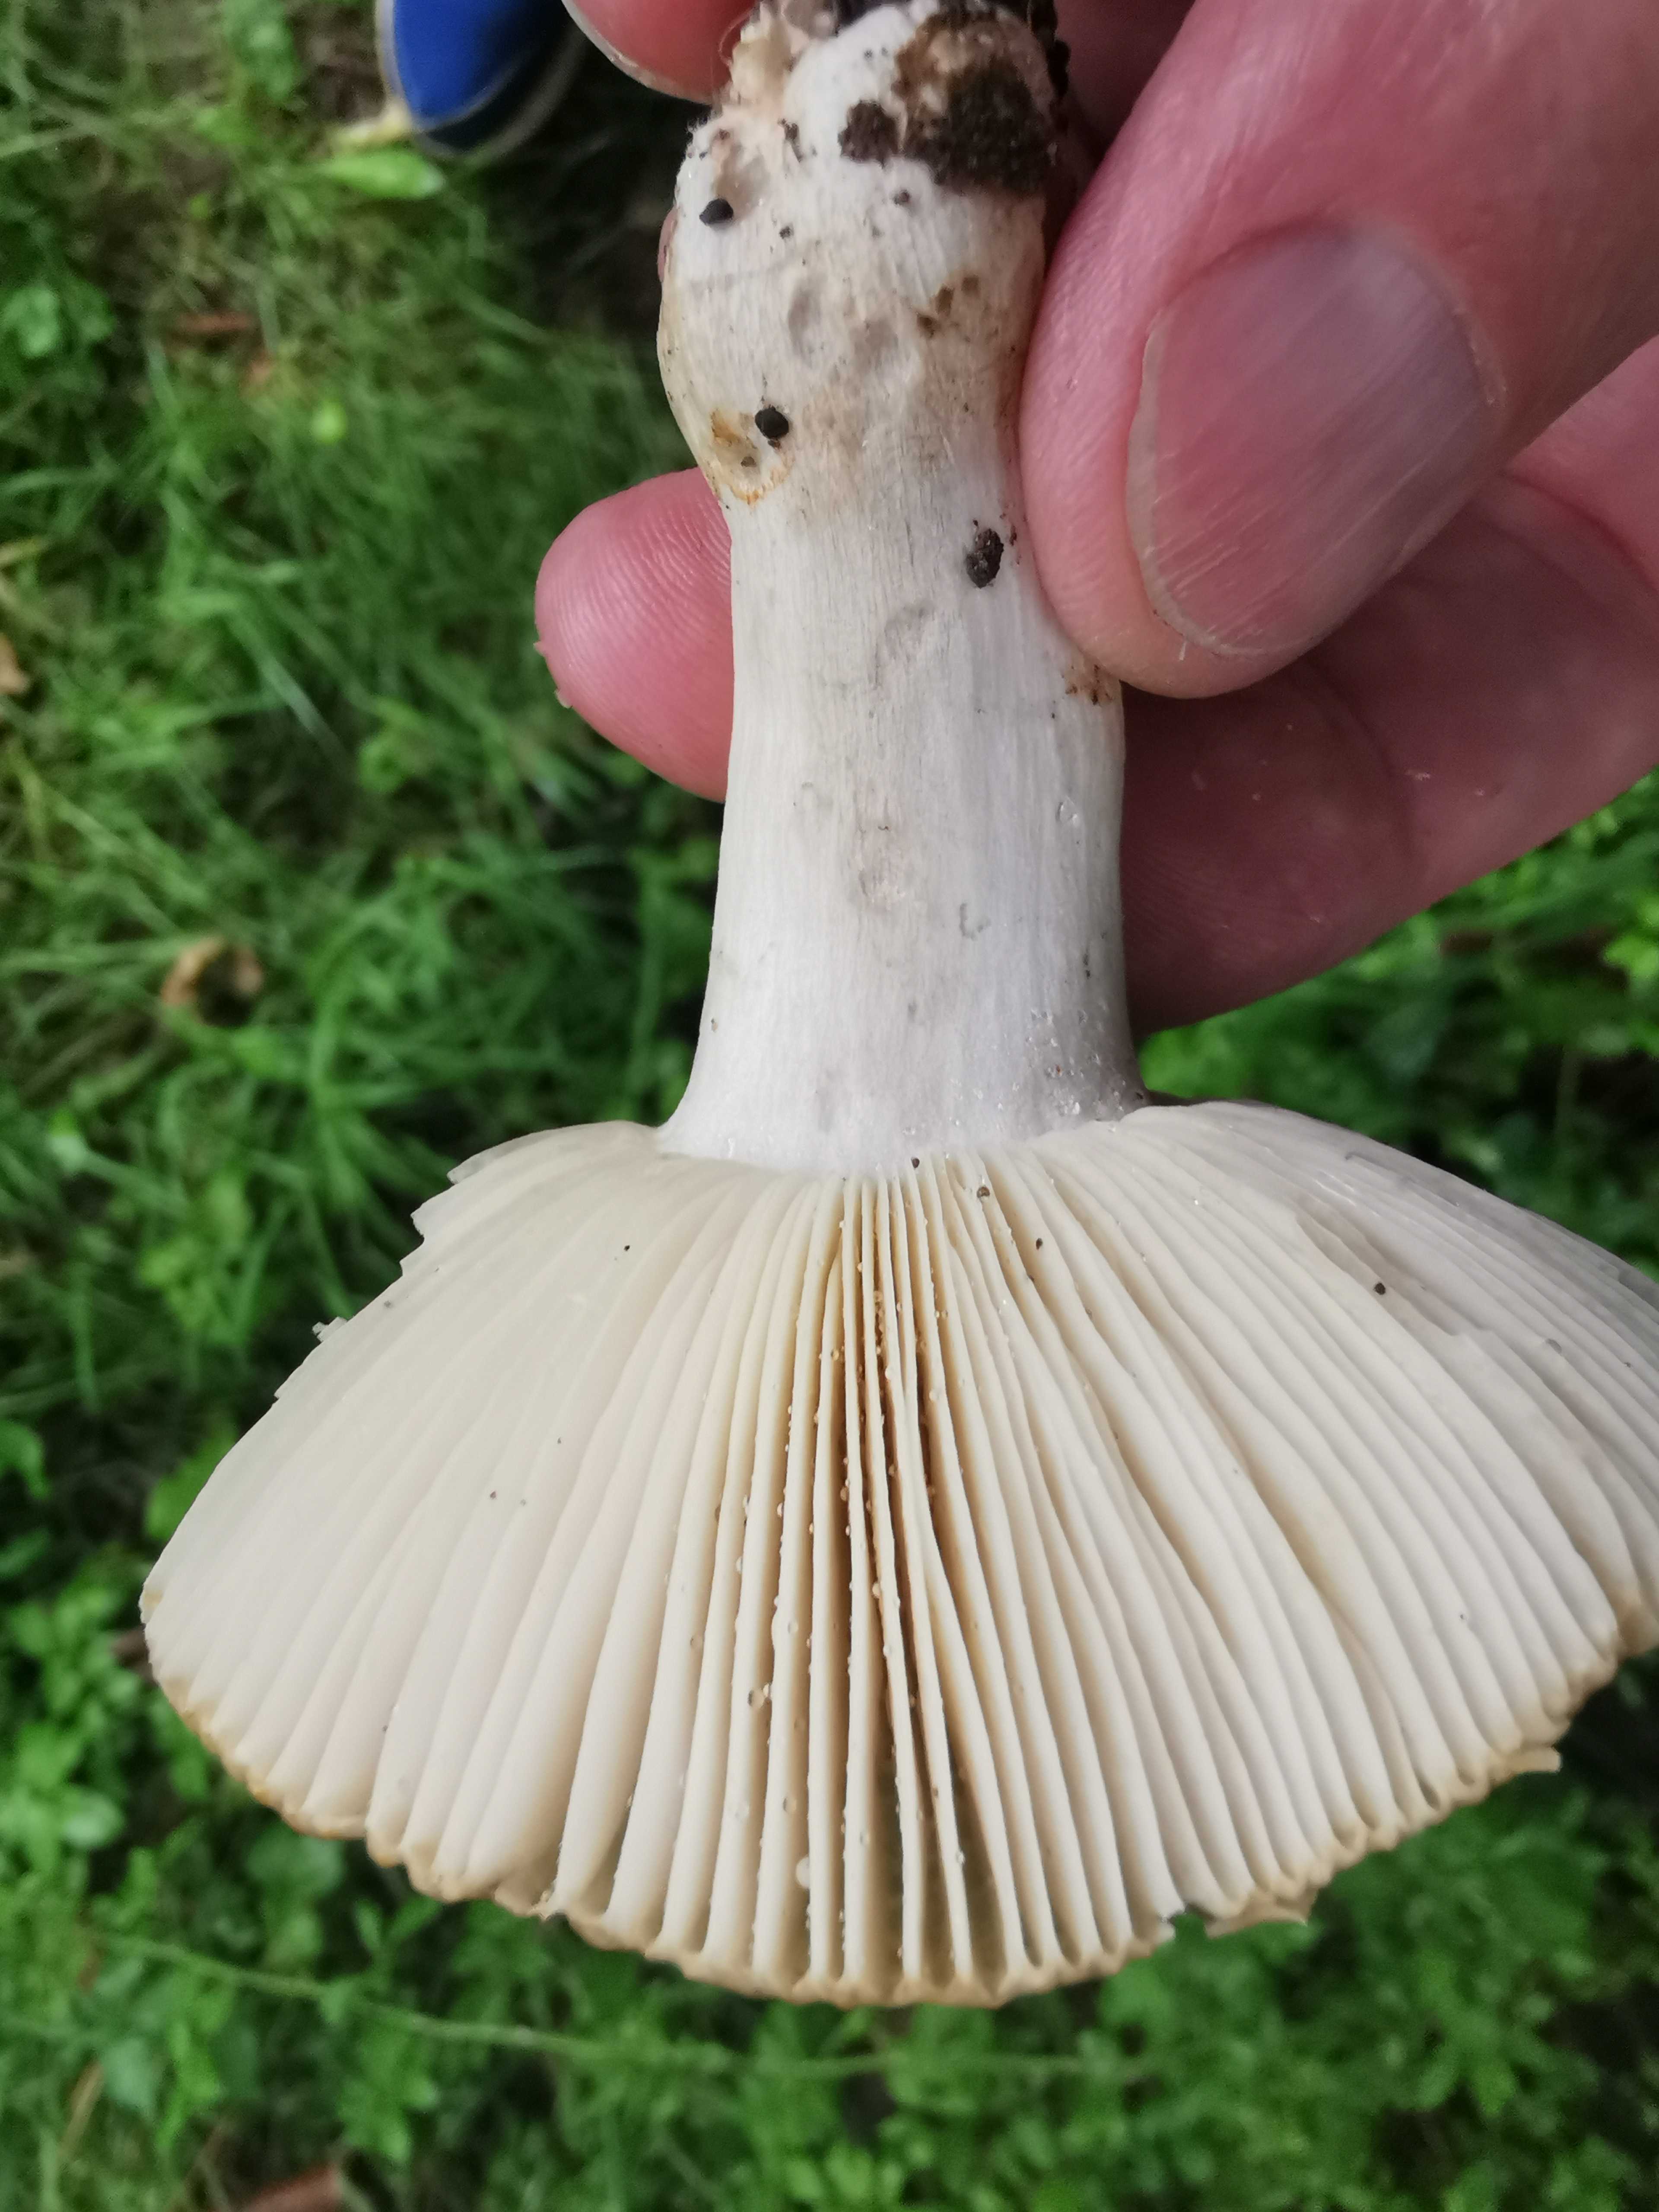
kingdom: Fungi
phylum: Basidiomycota
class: Agaricomycetes
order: Russulales
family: Russulaceae
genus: Russula
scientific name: Russula recondita
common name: mild kam-skørhat
